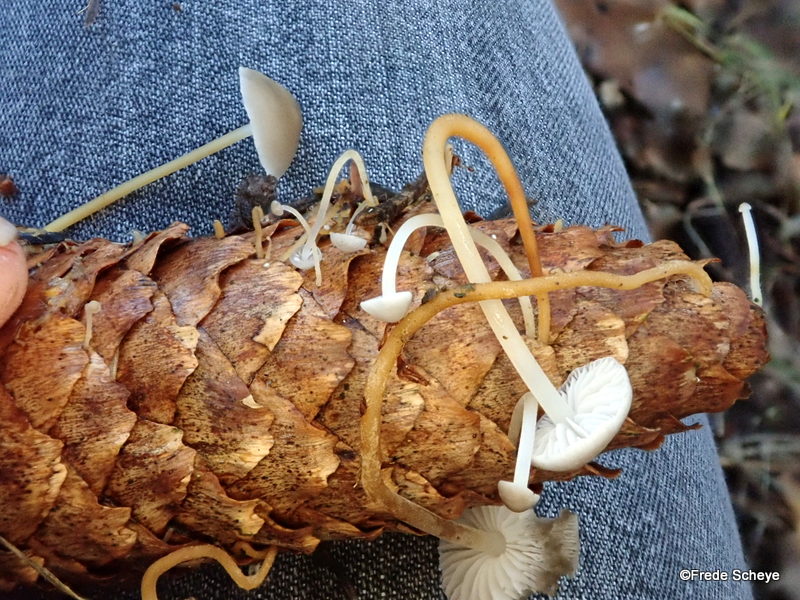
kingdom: Fungi
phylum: Basidiomycota
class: Agaricomycetes
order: Agaricales
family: Physalacriaceae
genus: Strobilurus
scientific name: Strobilurus esculentus
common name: gran-koglehat
